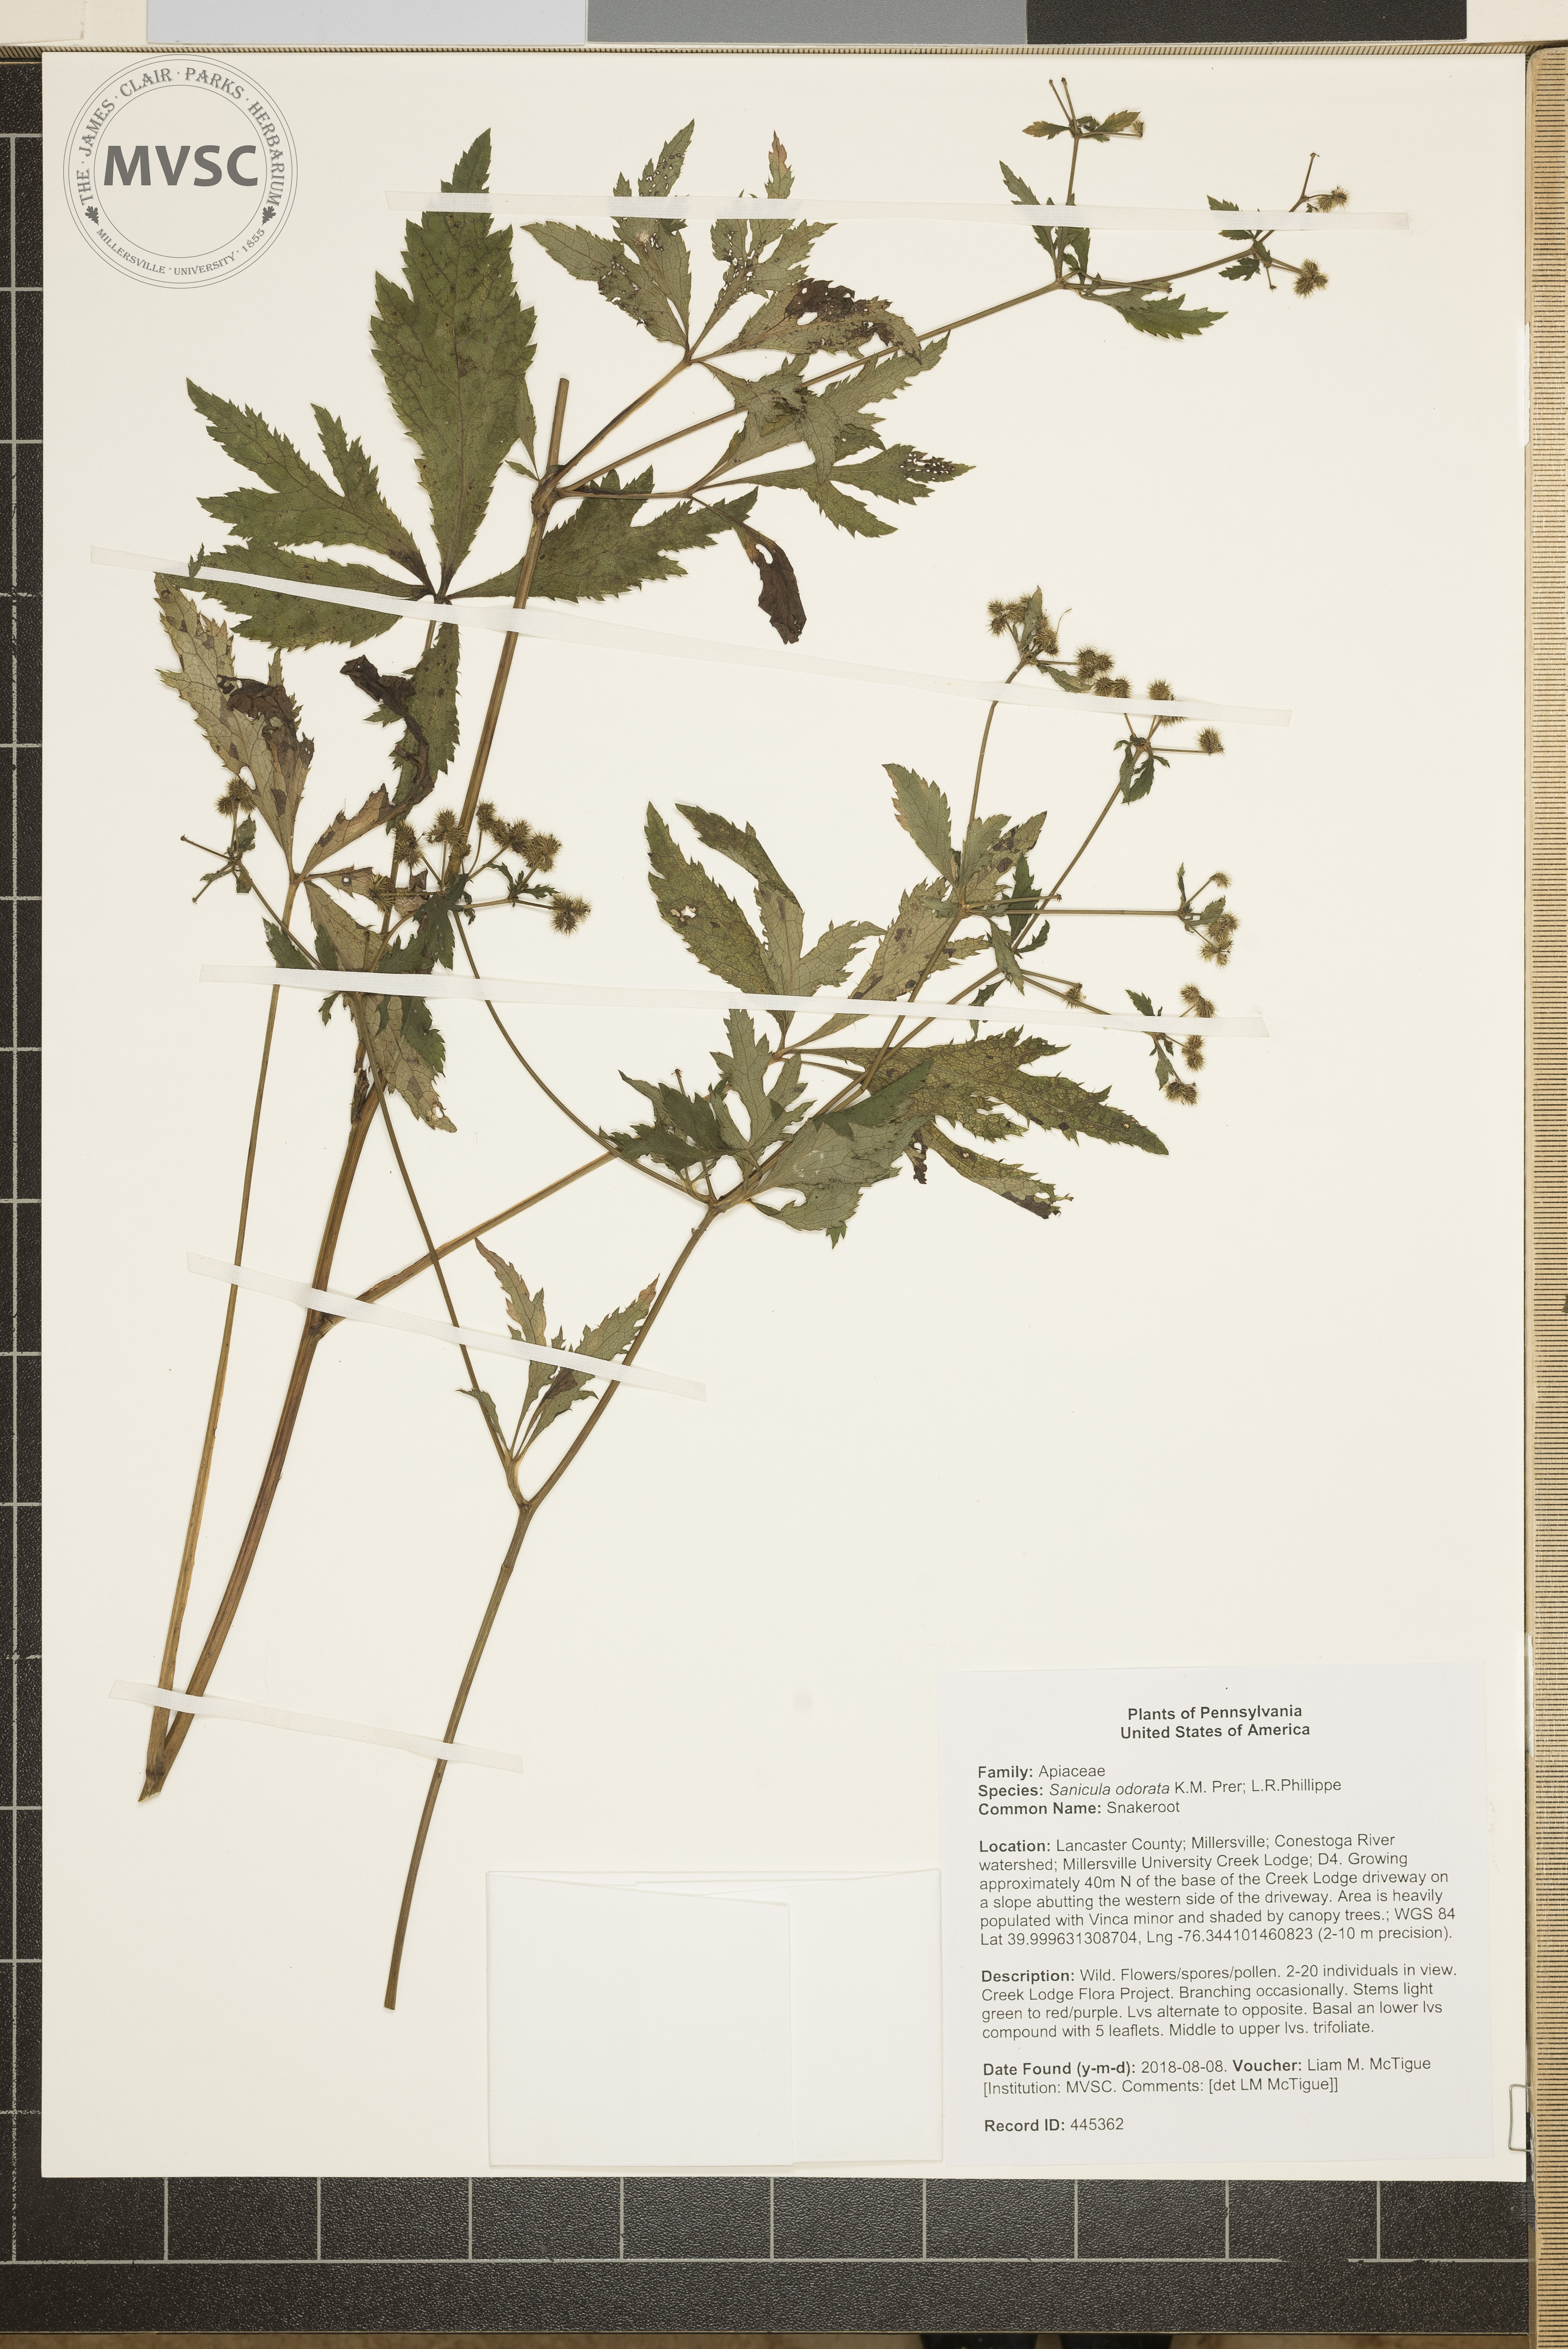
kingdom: Plantae
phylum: Tracheophyta
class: Magnoliopsida
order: Apiales
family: Apiaceae
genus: Sanicula
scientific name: Sanicula odorata
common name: Snakeroot
